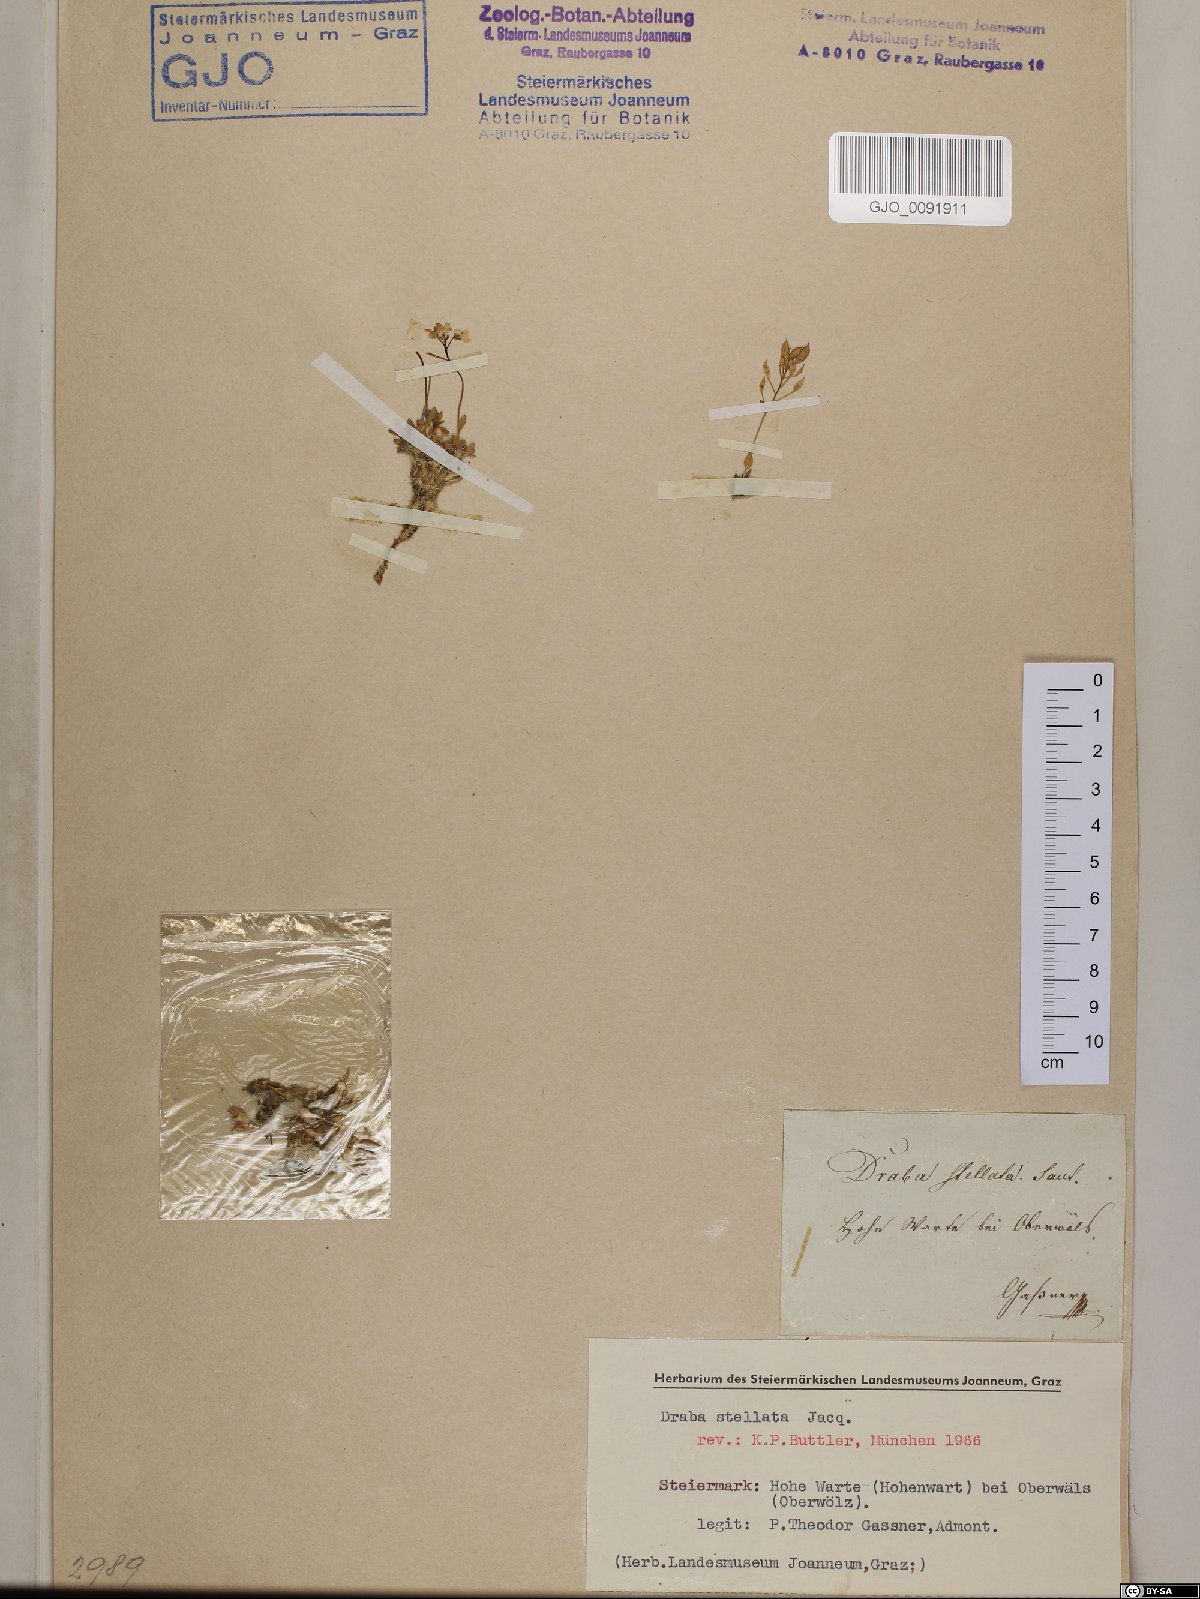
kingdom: Plantae
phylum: Tracheophyta
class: Magnoliopsida
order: Brassicales
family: Brassicaceae
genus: Draba
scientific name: Draba stellata
